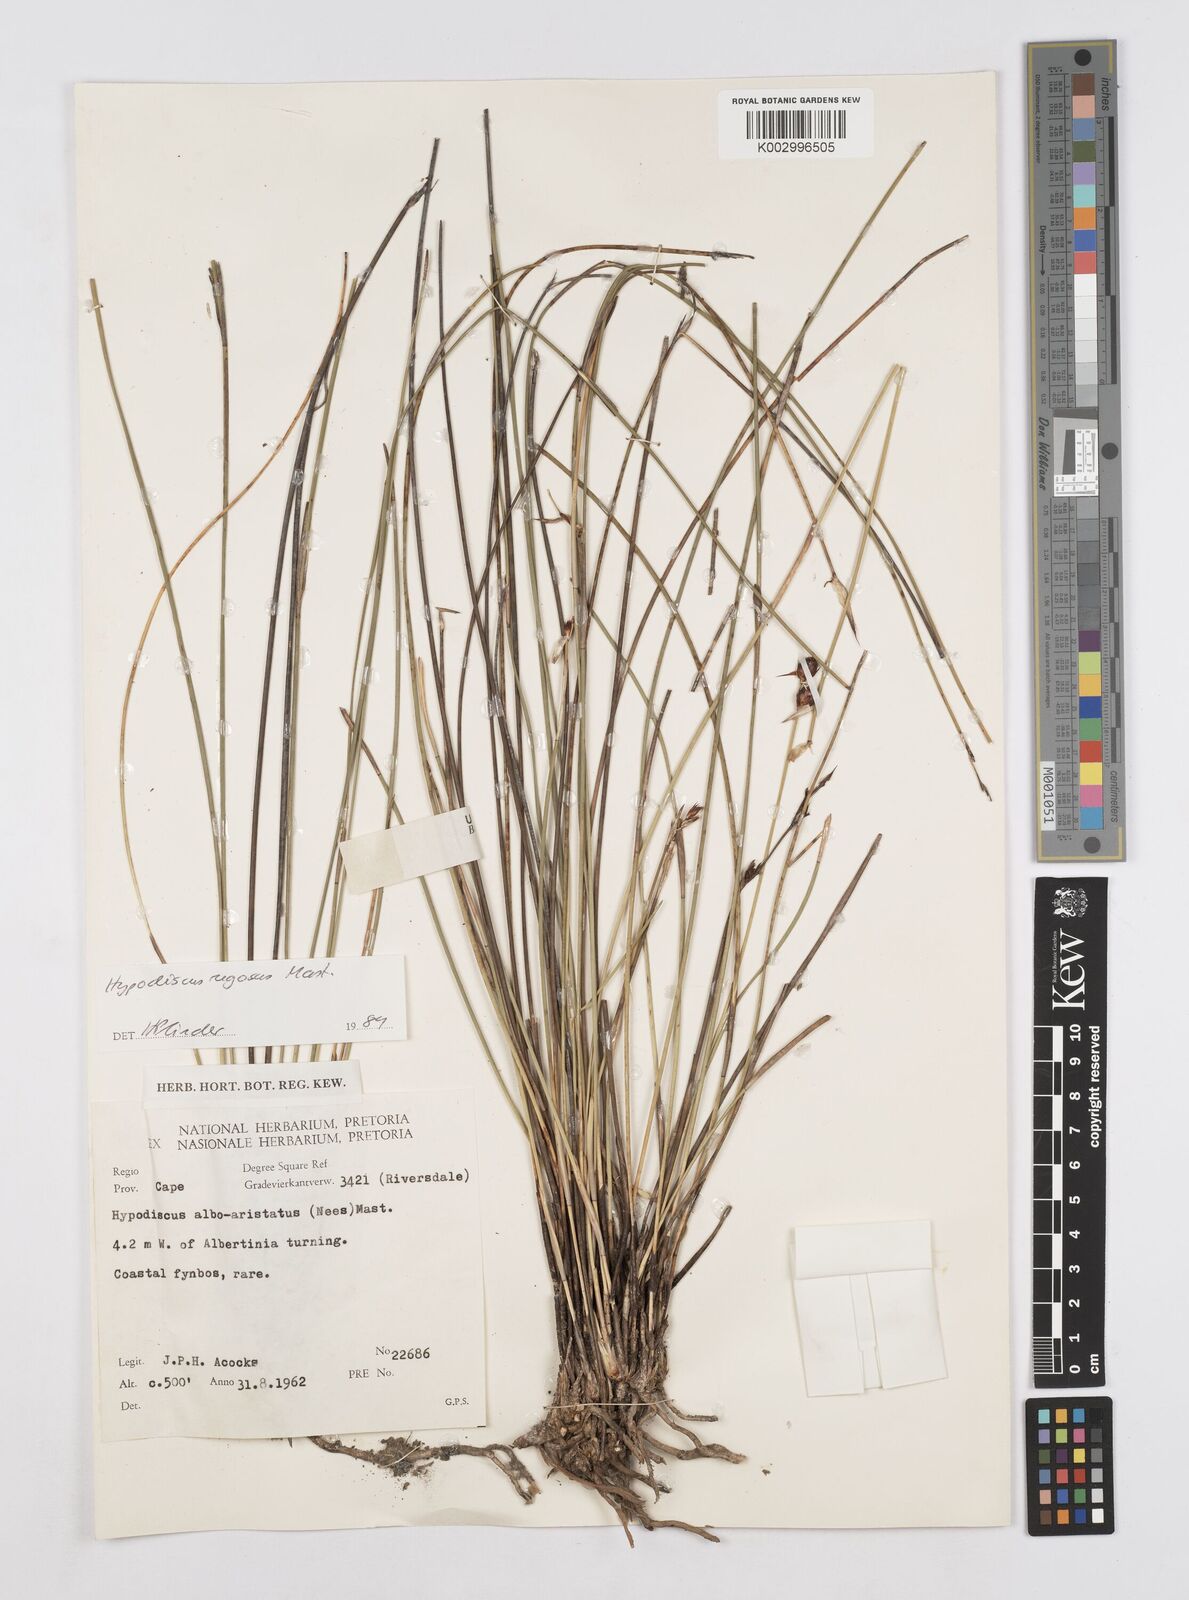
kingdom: Plantae
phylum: Tracheophyta
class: Liliopsida
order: Poales
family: Restionaceae
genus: Hypodiscus
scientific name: Hypodiscus rugosus
